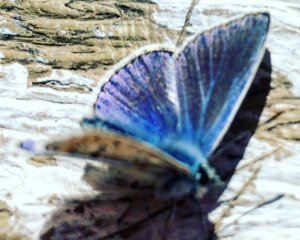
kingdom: Animalia
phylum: Arthropoda
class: Insecta
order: Lepidoptera
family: Lycaenidae
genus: Polyommatus
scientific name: Polyommatus icarus
